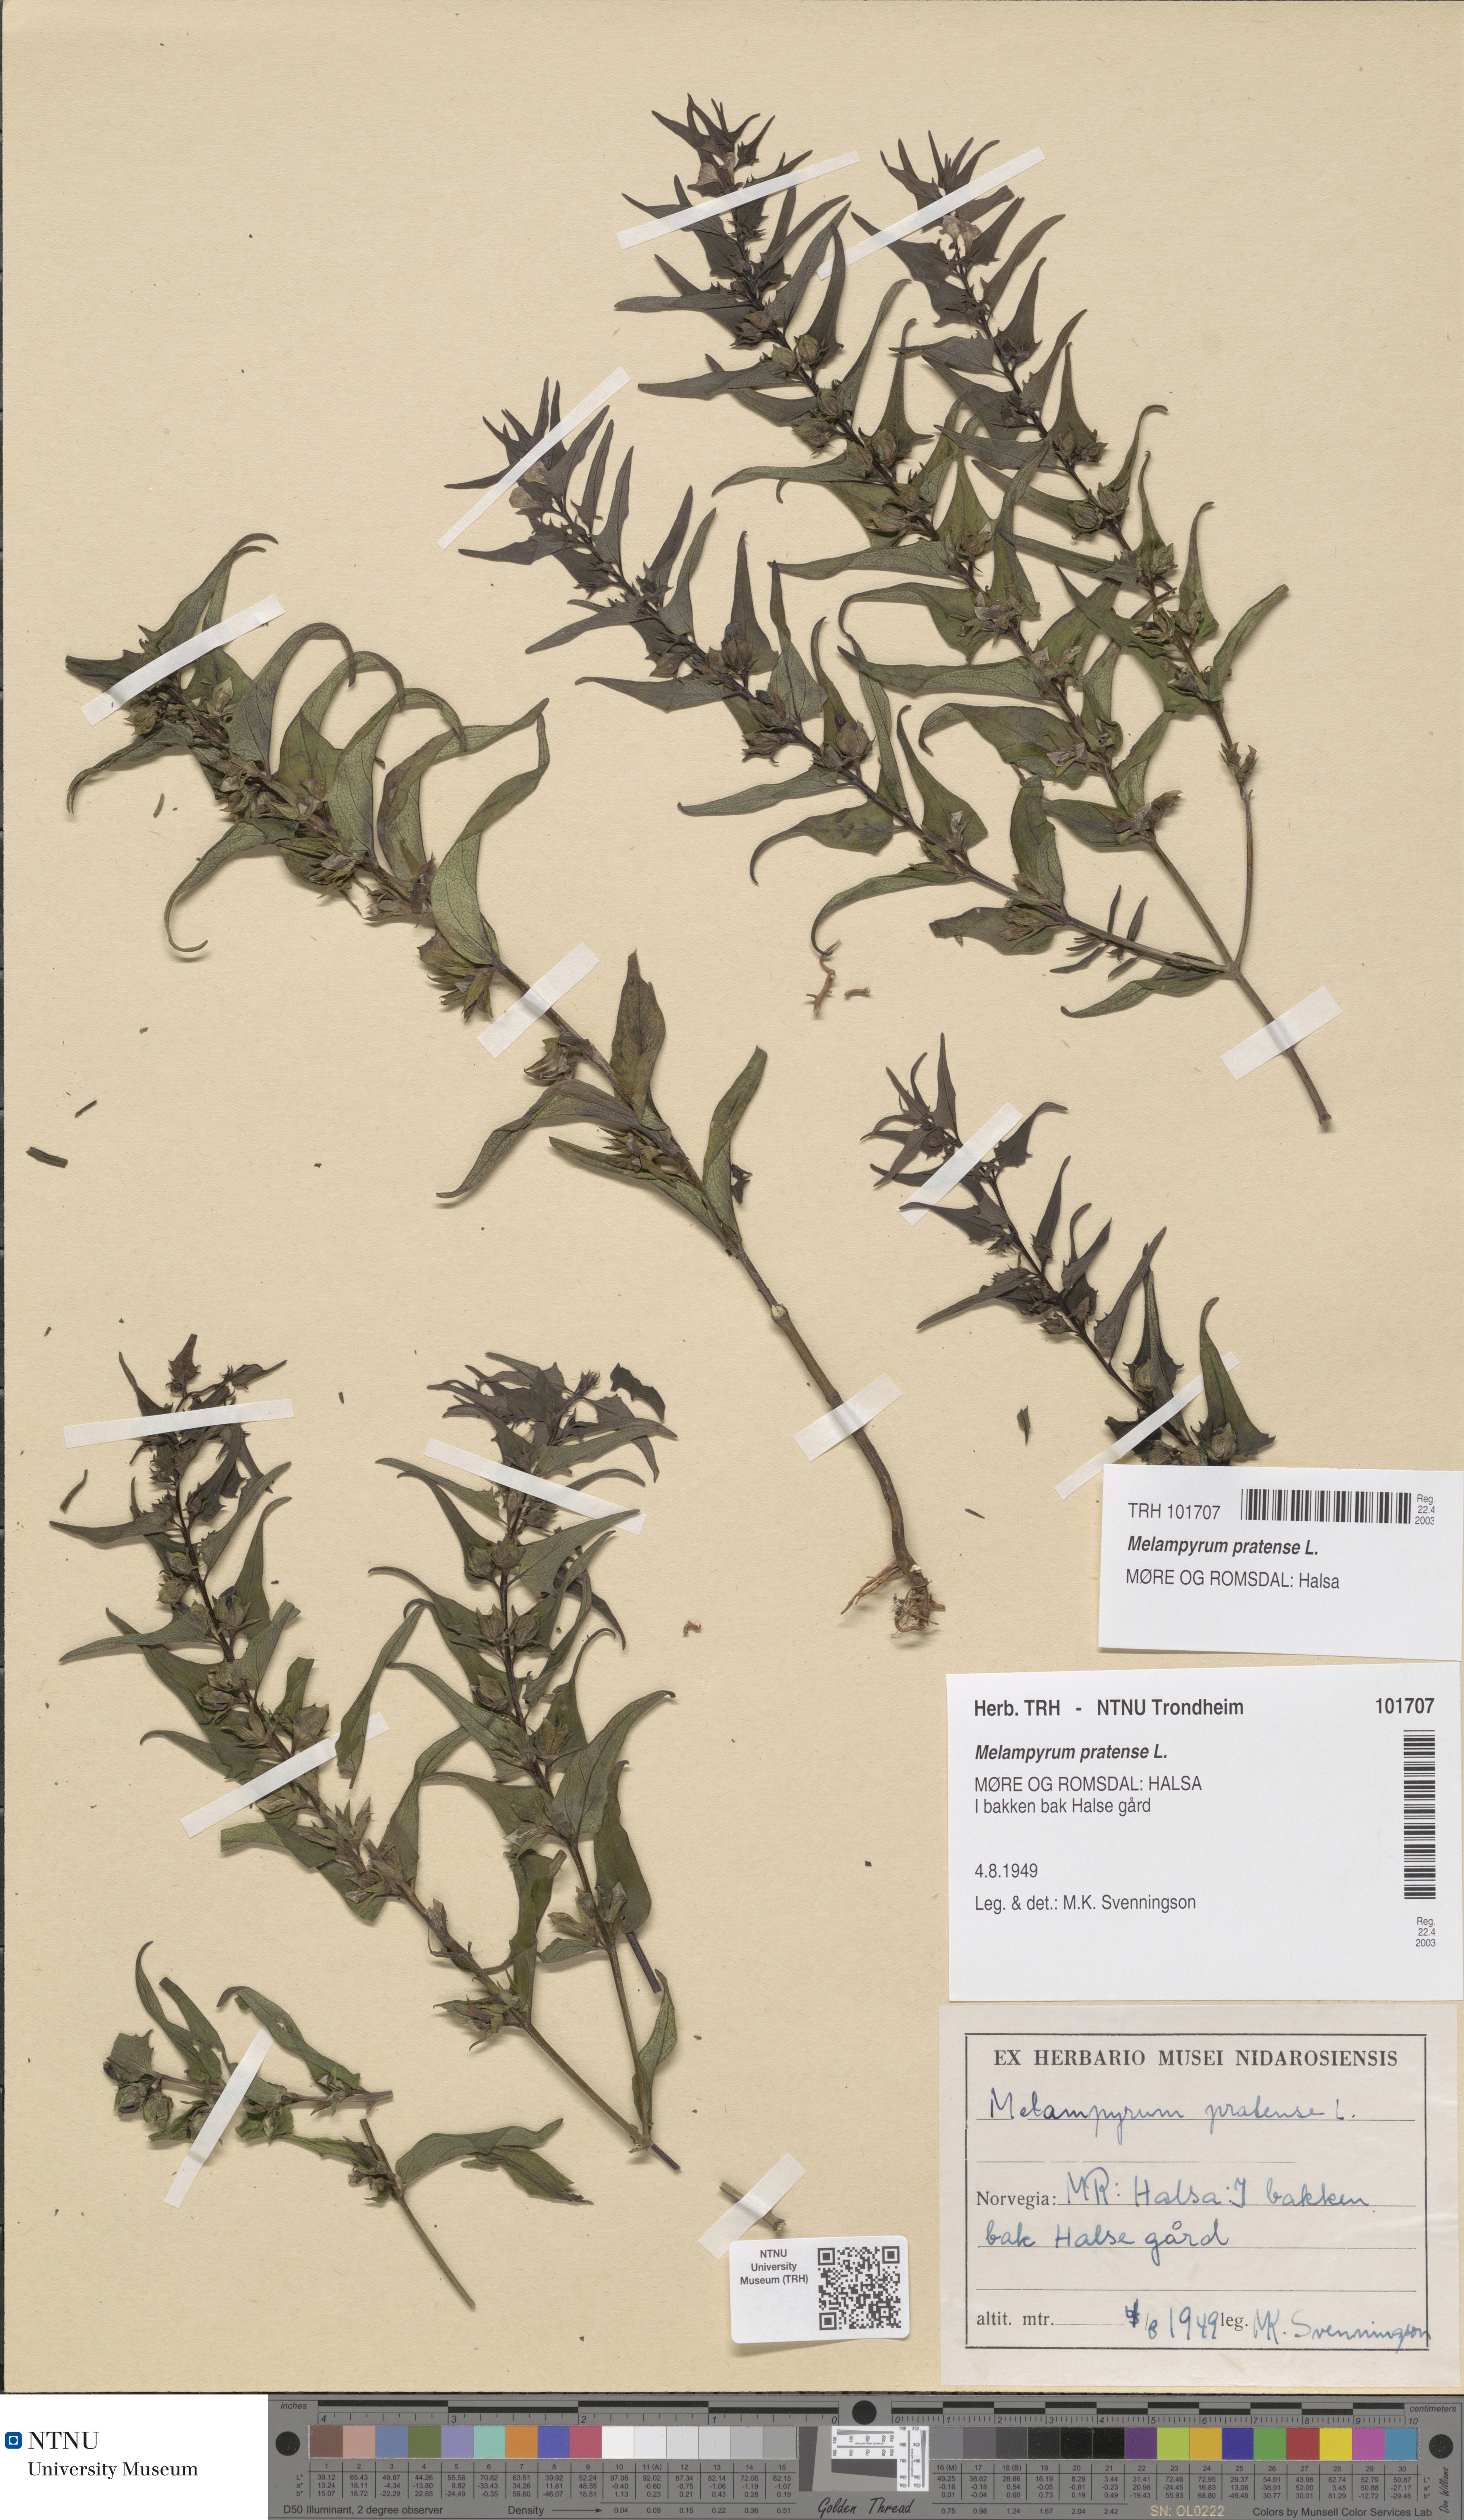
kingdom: Plantae
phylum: Tracheophyta
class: Magnoliopsida
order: Lamiales
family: Orobanchaceae
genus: Melampyrum
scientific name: Melampyrum pratense
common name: Common cow-wheat
